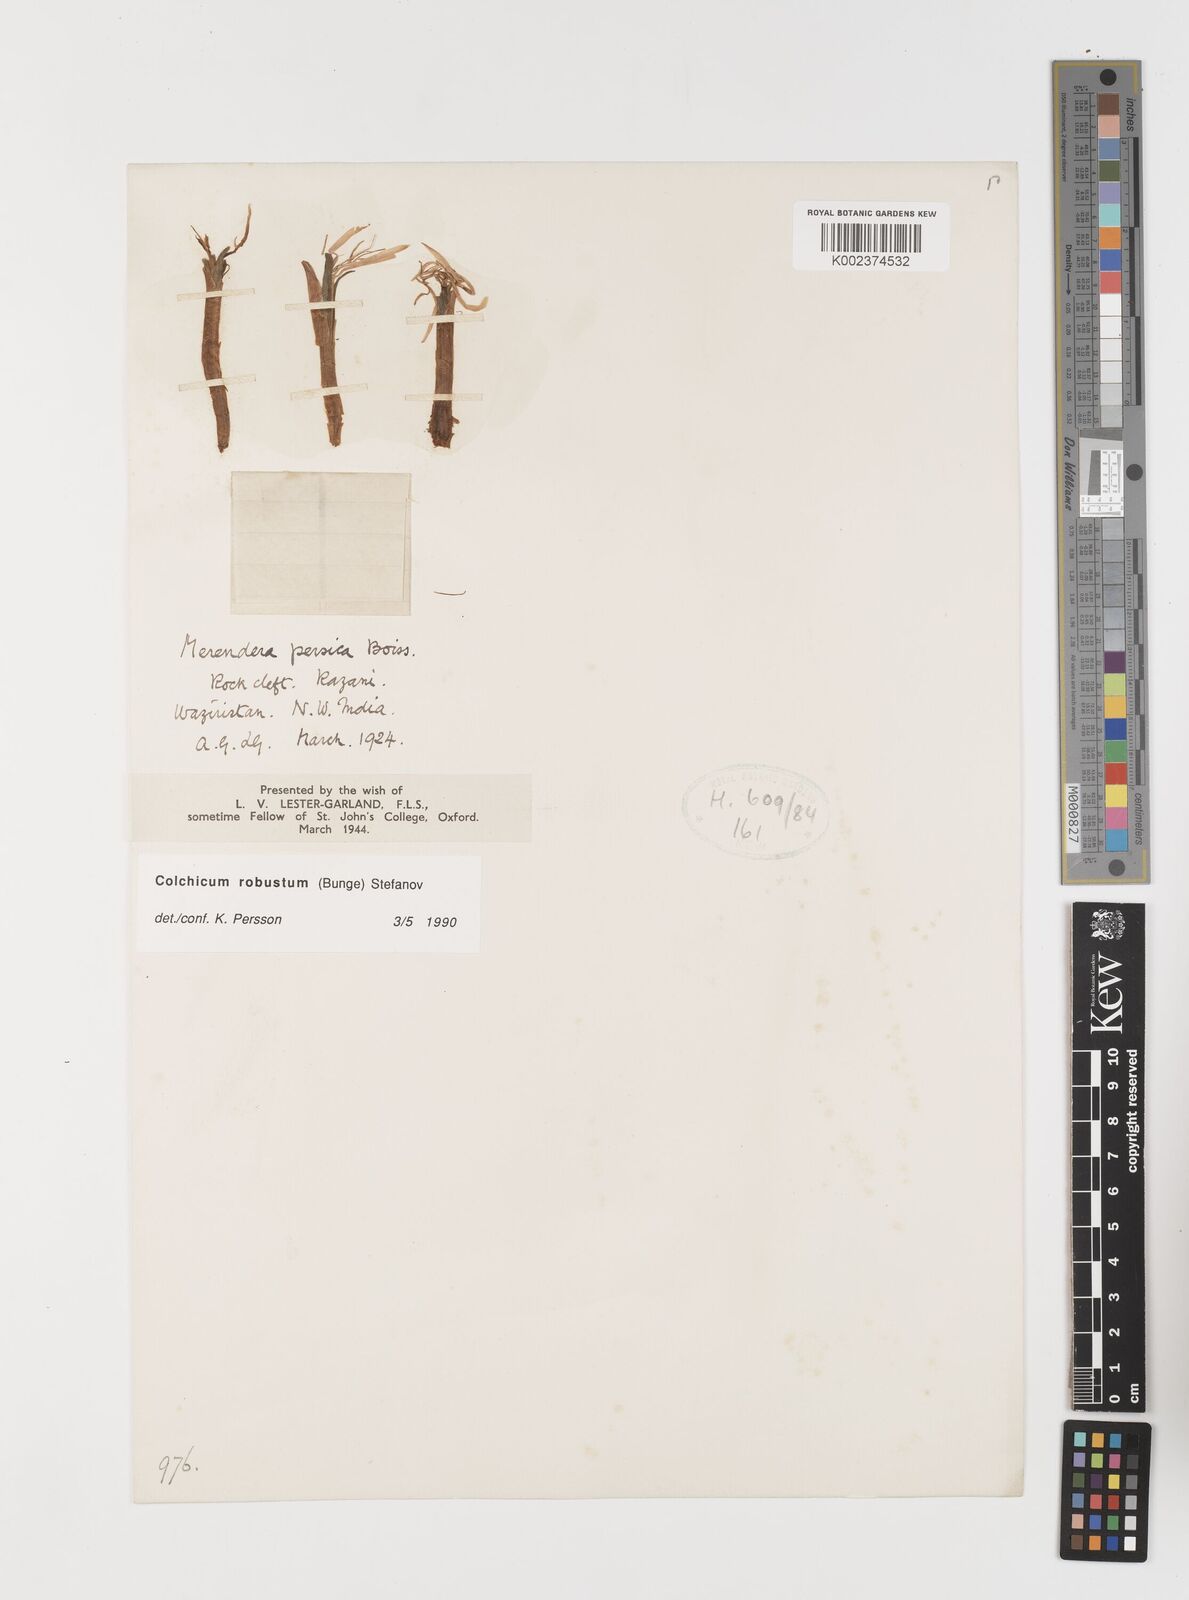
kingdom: Plantae
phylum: Tracheophyta
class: Liliopsida
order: Liliales
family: Colchicaceae
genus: Colchicum
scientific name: Colchicum robustum
